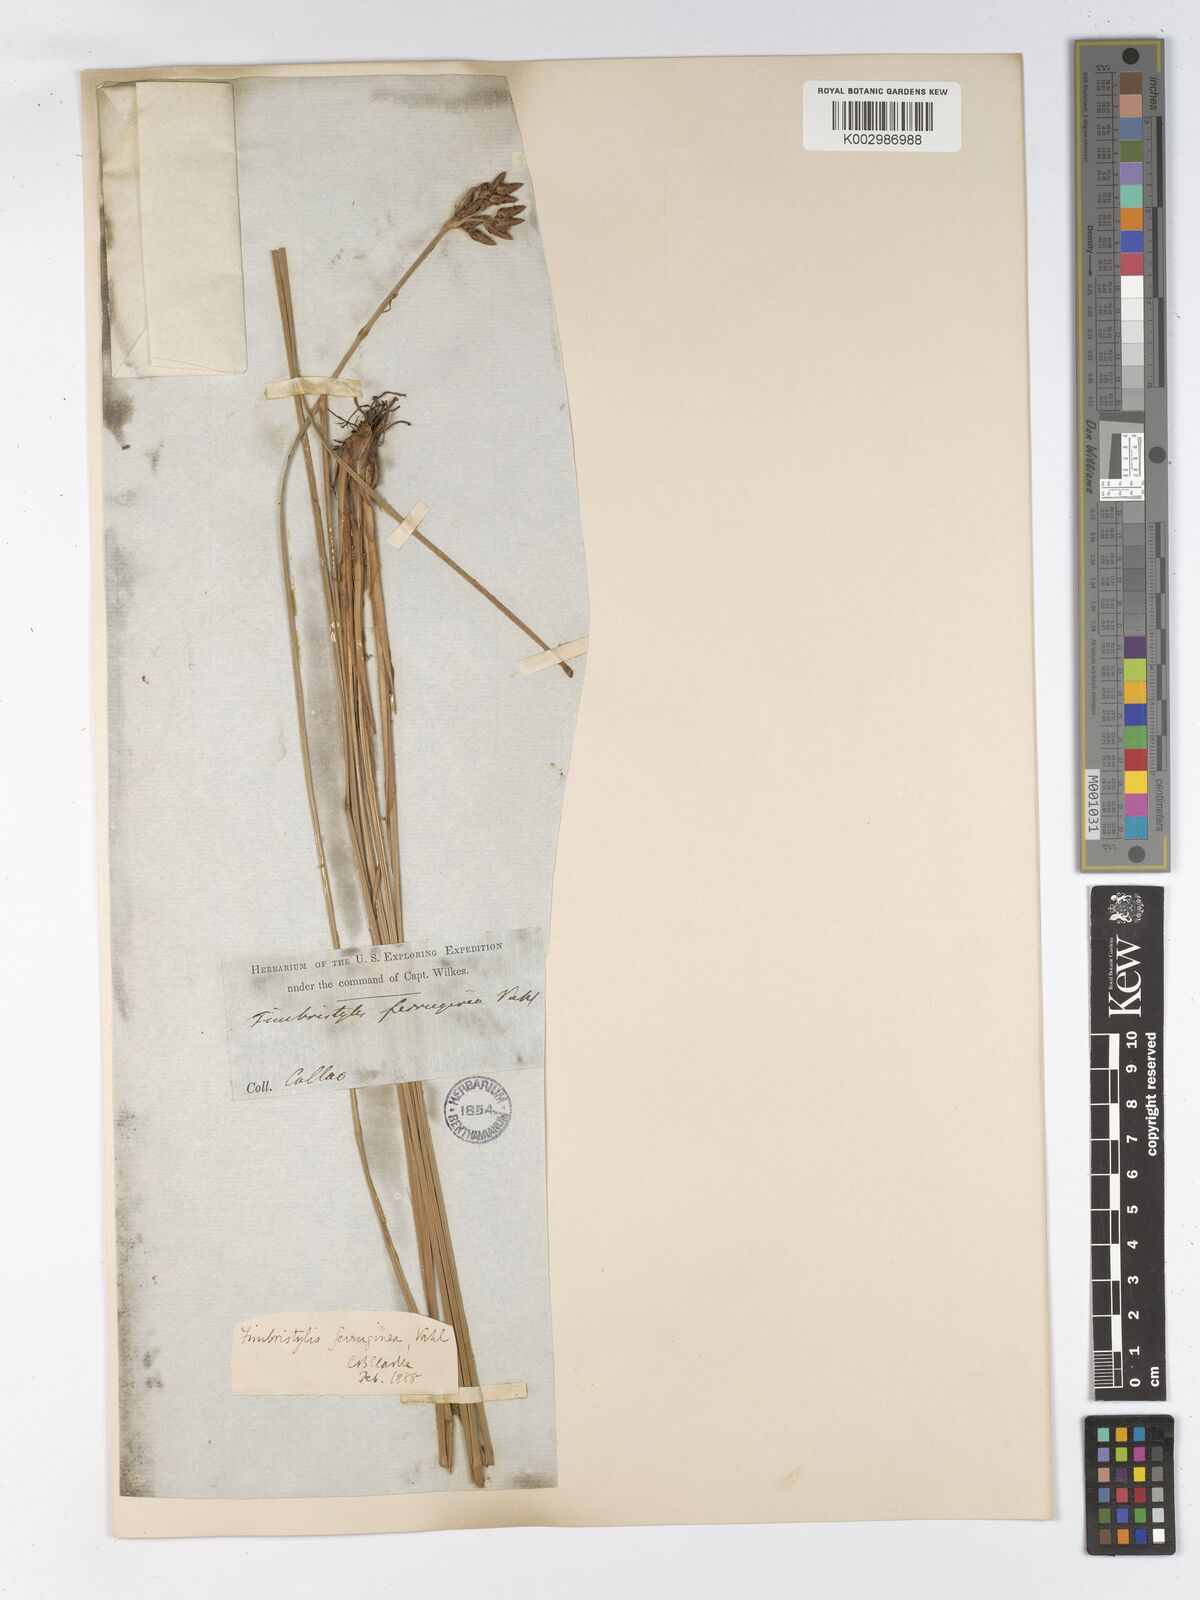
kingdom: Plantae
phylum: Tracheophyta
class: Liliopsida
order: Poales
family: Cyperaceae
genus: Fimbristylis
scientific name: Fimbristylis ferruginea
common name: West indian fimbry
